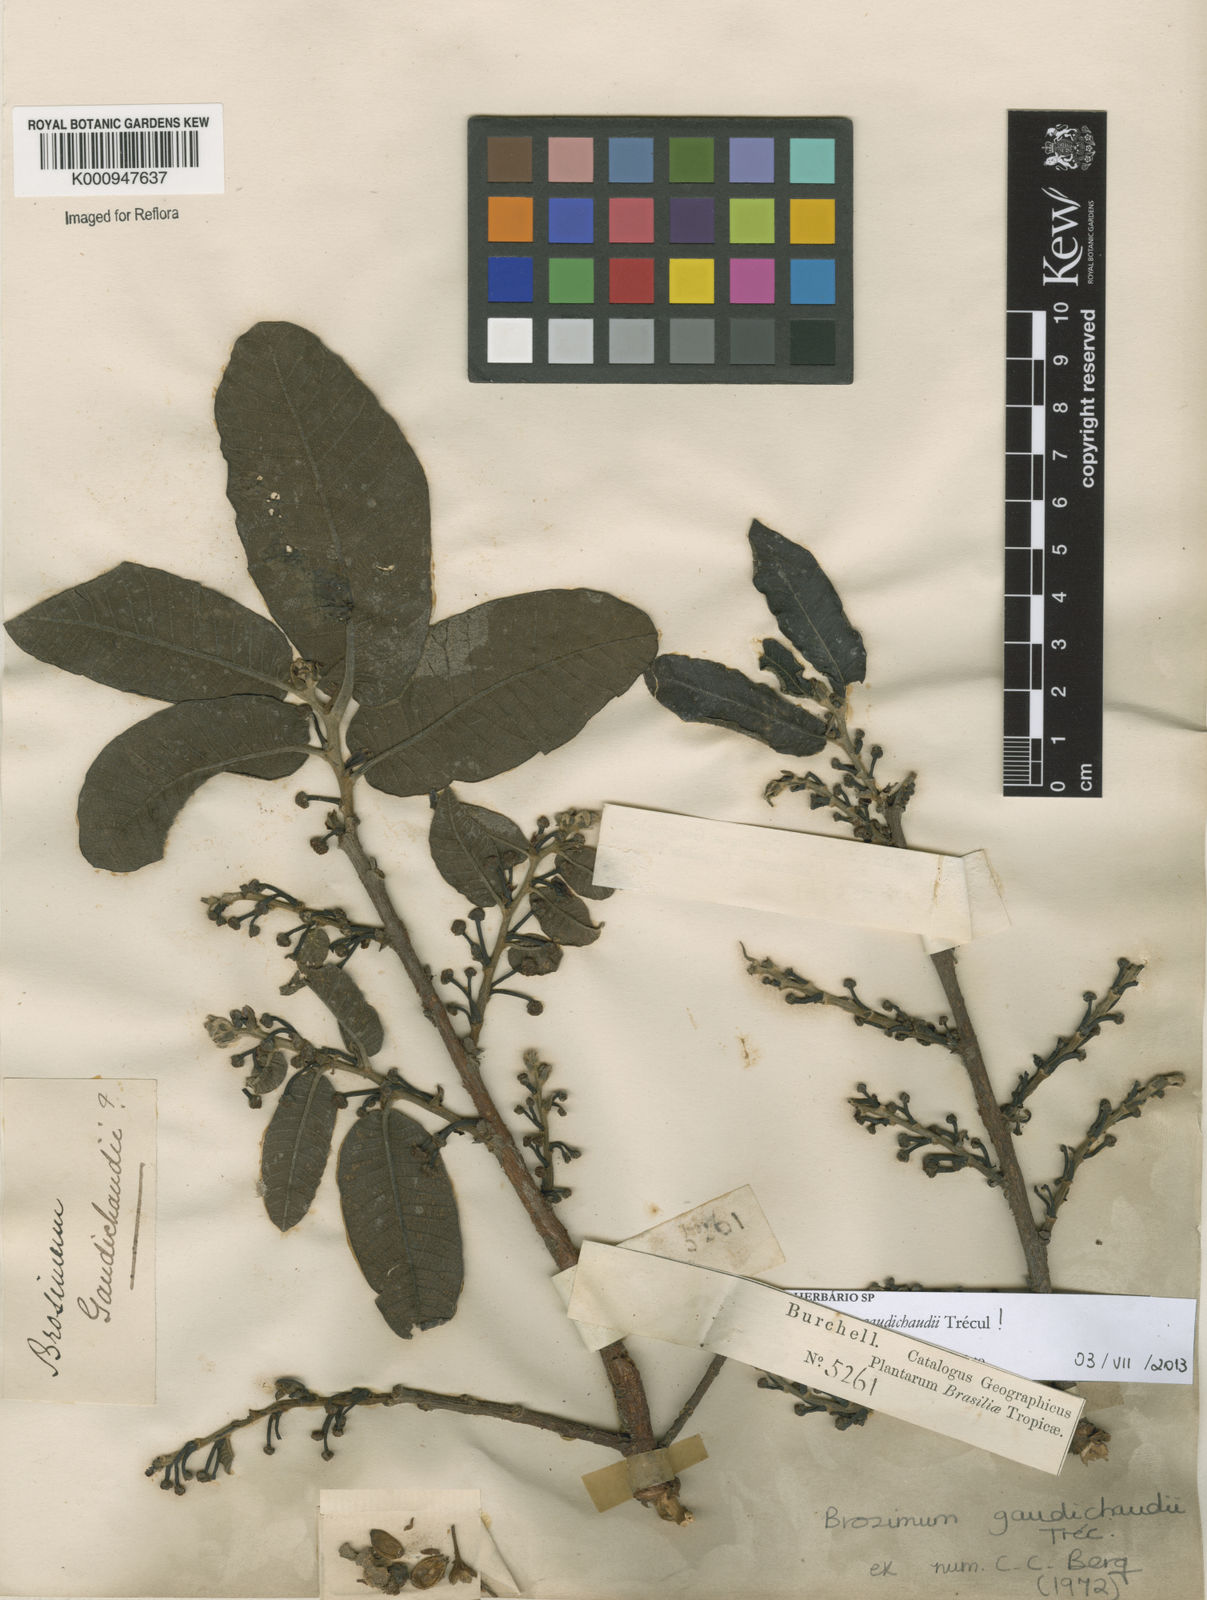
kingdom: Plantae
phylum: Tracheophyta
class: Magnoliopsida
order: Rosales
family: Moraceae
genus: Brosimum
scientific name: Brosimum
